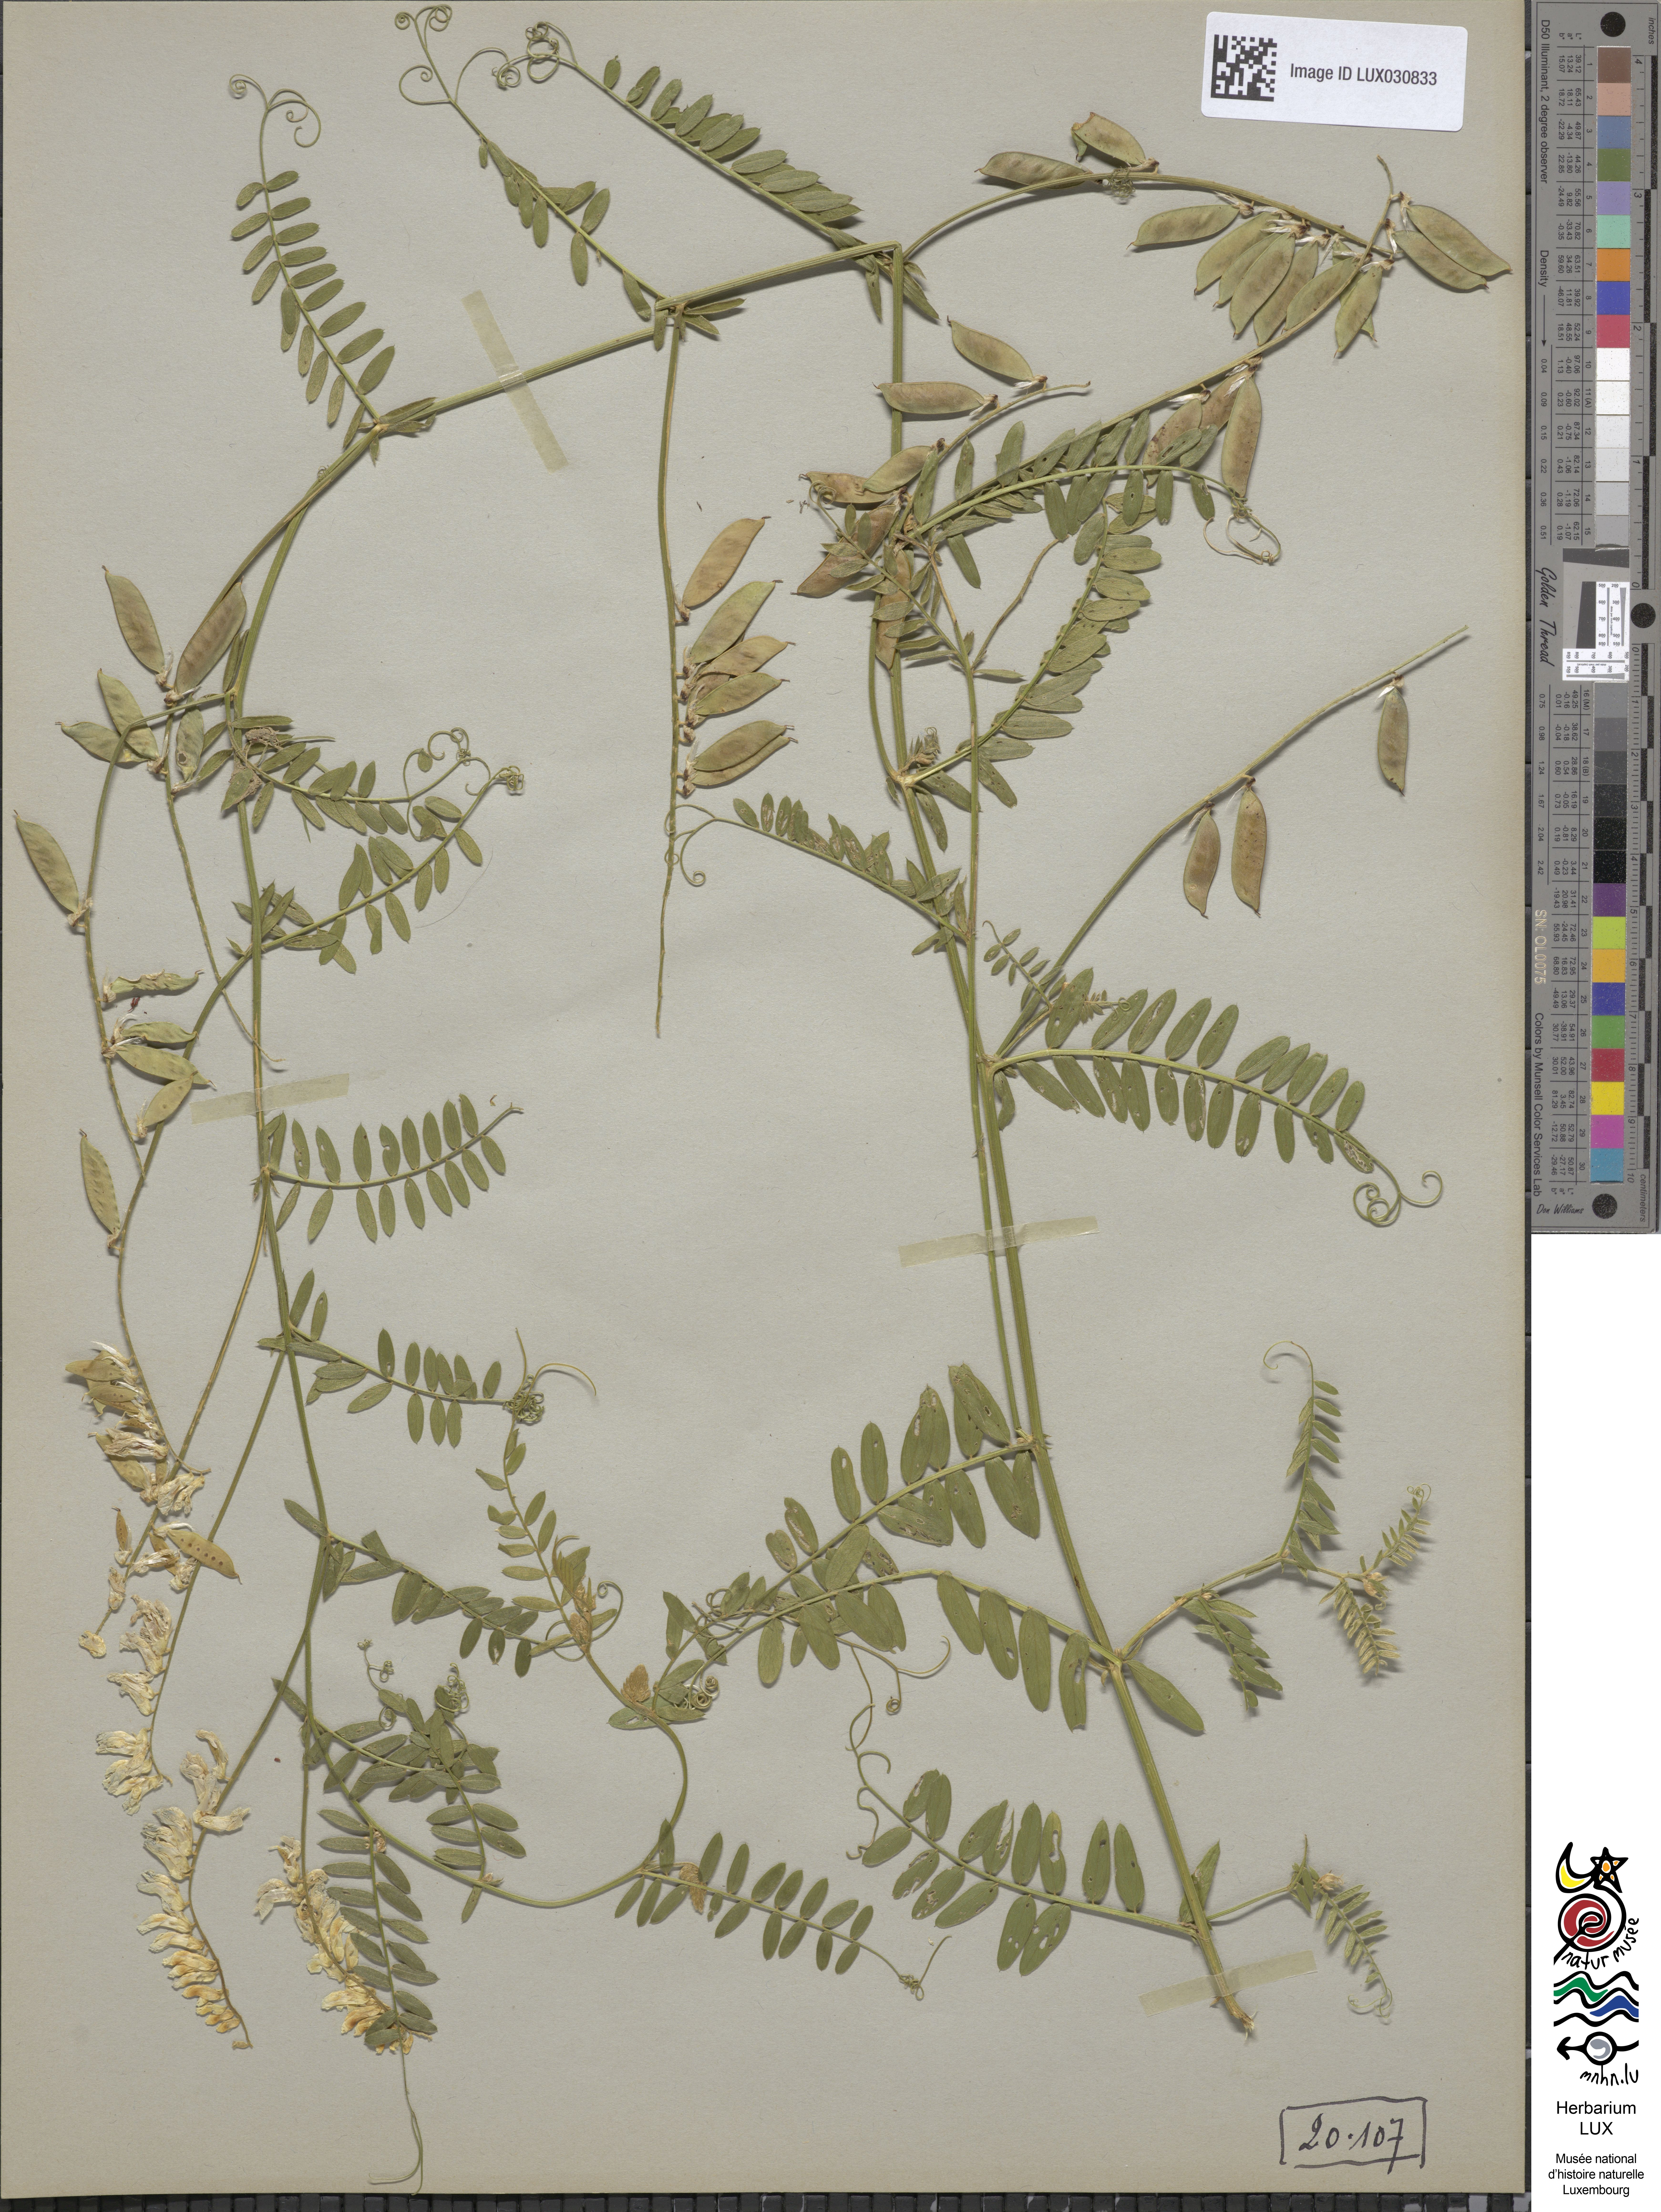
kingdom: Plantae
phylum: Tracheophyta
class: Magnoliopsida
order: Fabales
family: Fabaceae
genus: Vicia
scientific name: Vicia cracca
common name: Bird vetch
